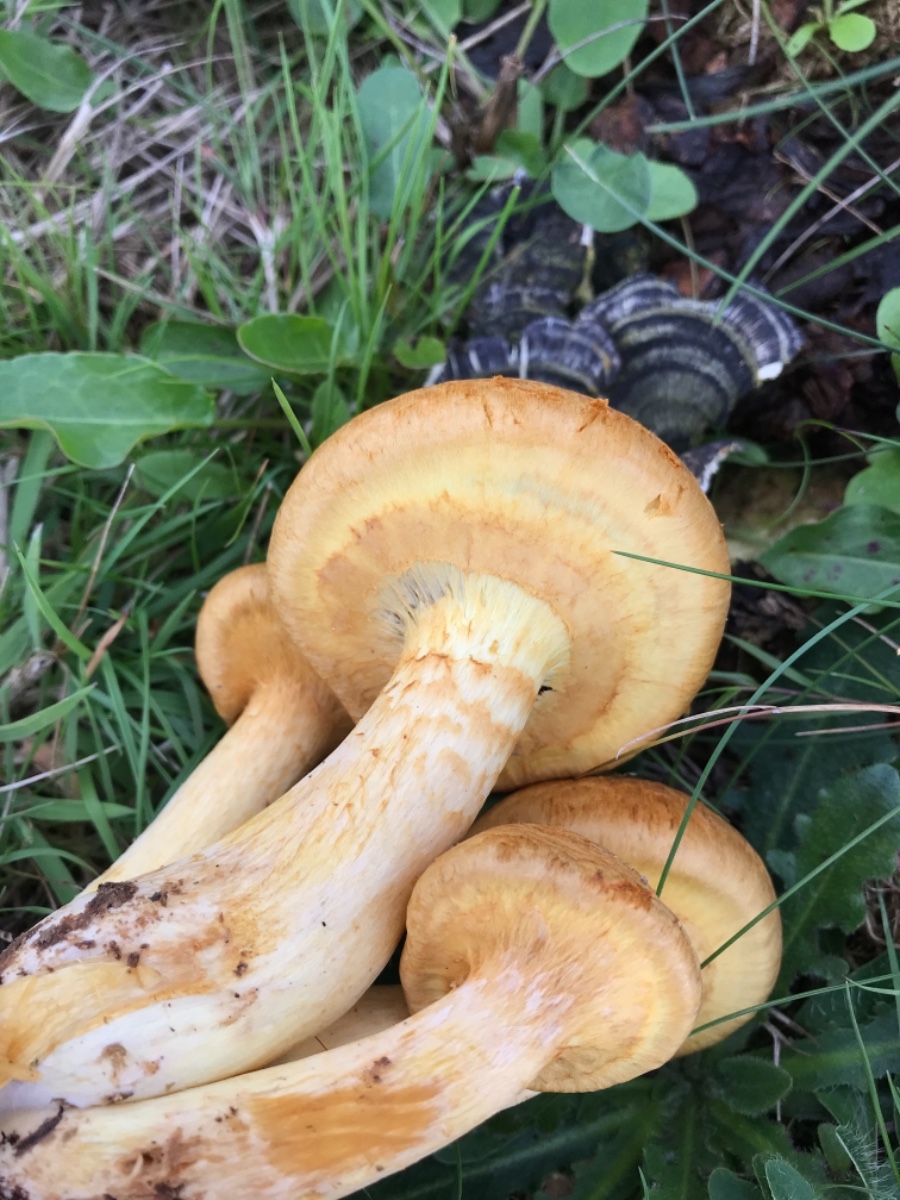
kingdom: Fungi
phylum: Basidiomycota
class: Agaricomycetes
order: Agaricales
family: Hymenogastraceae
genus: Gymnopilus
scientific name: Gymnopilus spectabilis
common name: fibret flammehat
